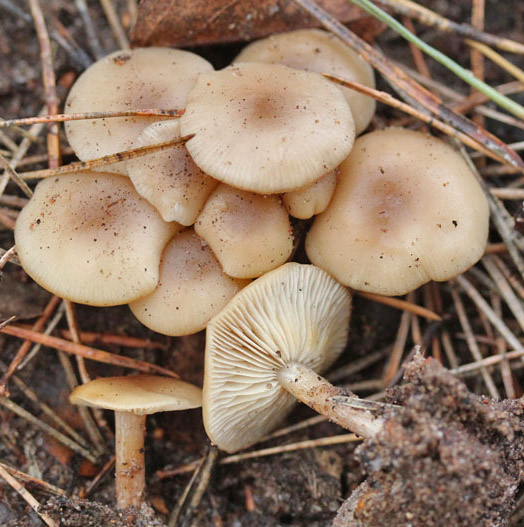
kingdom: Fungi
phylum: Basidiomycota
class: Agaricomycetes
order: Agaricales
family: Tricholomataceae
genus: Clitocybe
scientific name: Clitocybe amarescens
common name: gødnings-tragthat
